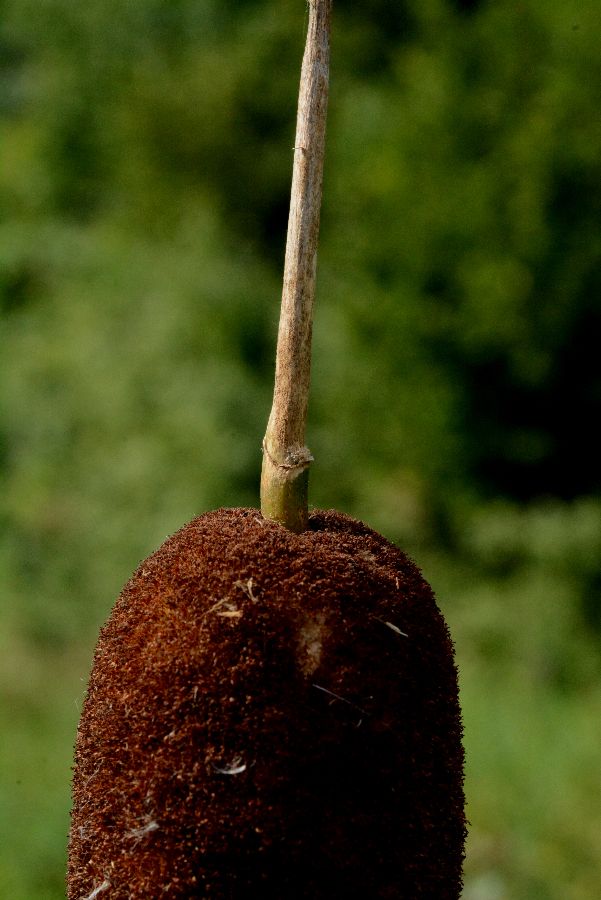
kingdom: Plantae
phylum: Tracheophyta
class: Liliopsida
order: Poales
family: Typhaceae
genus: Typha
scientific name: Typha latifolia
